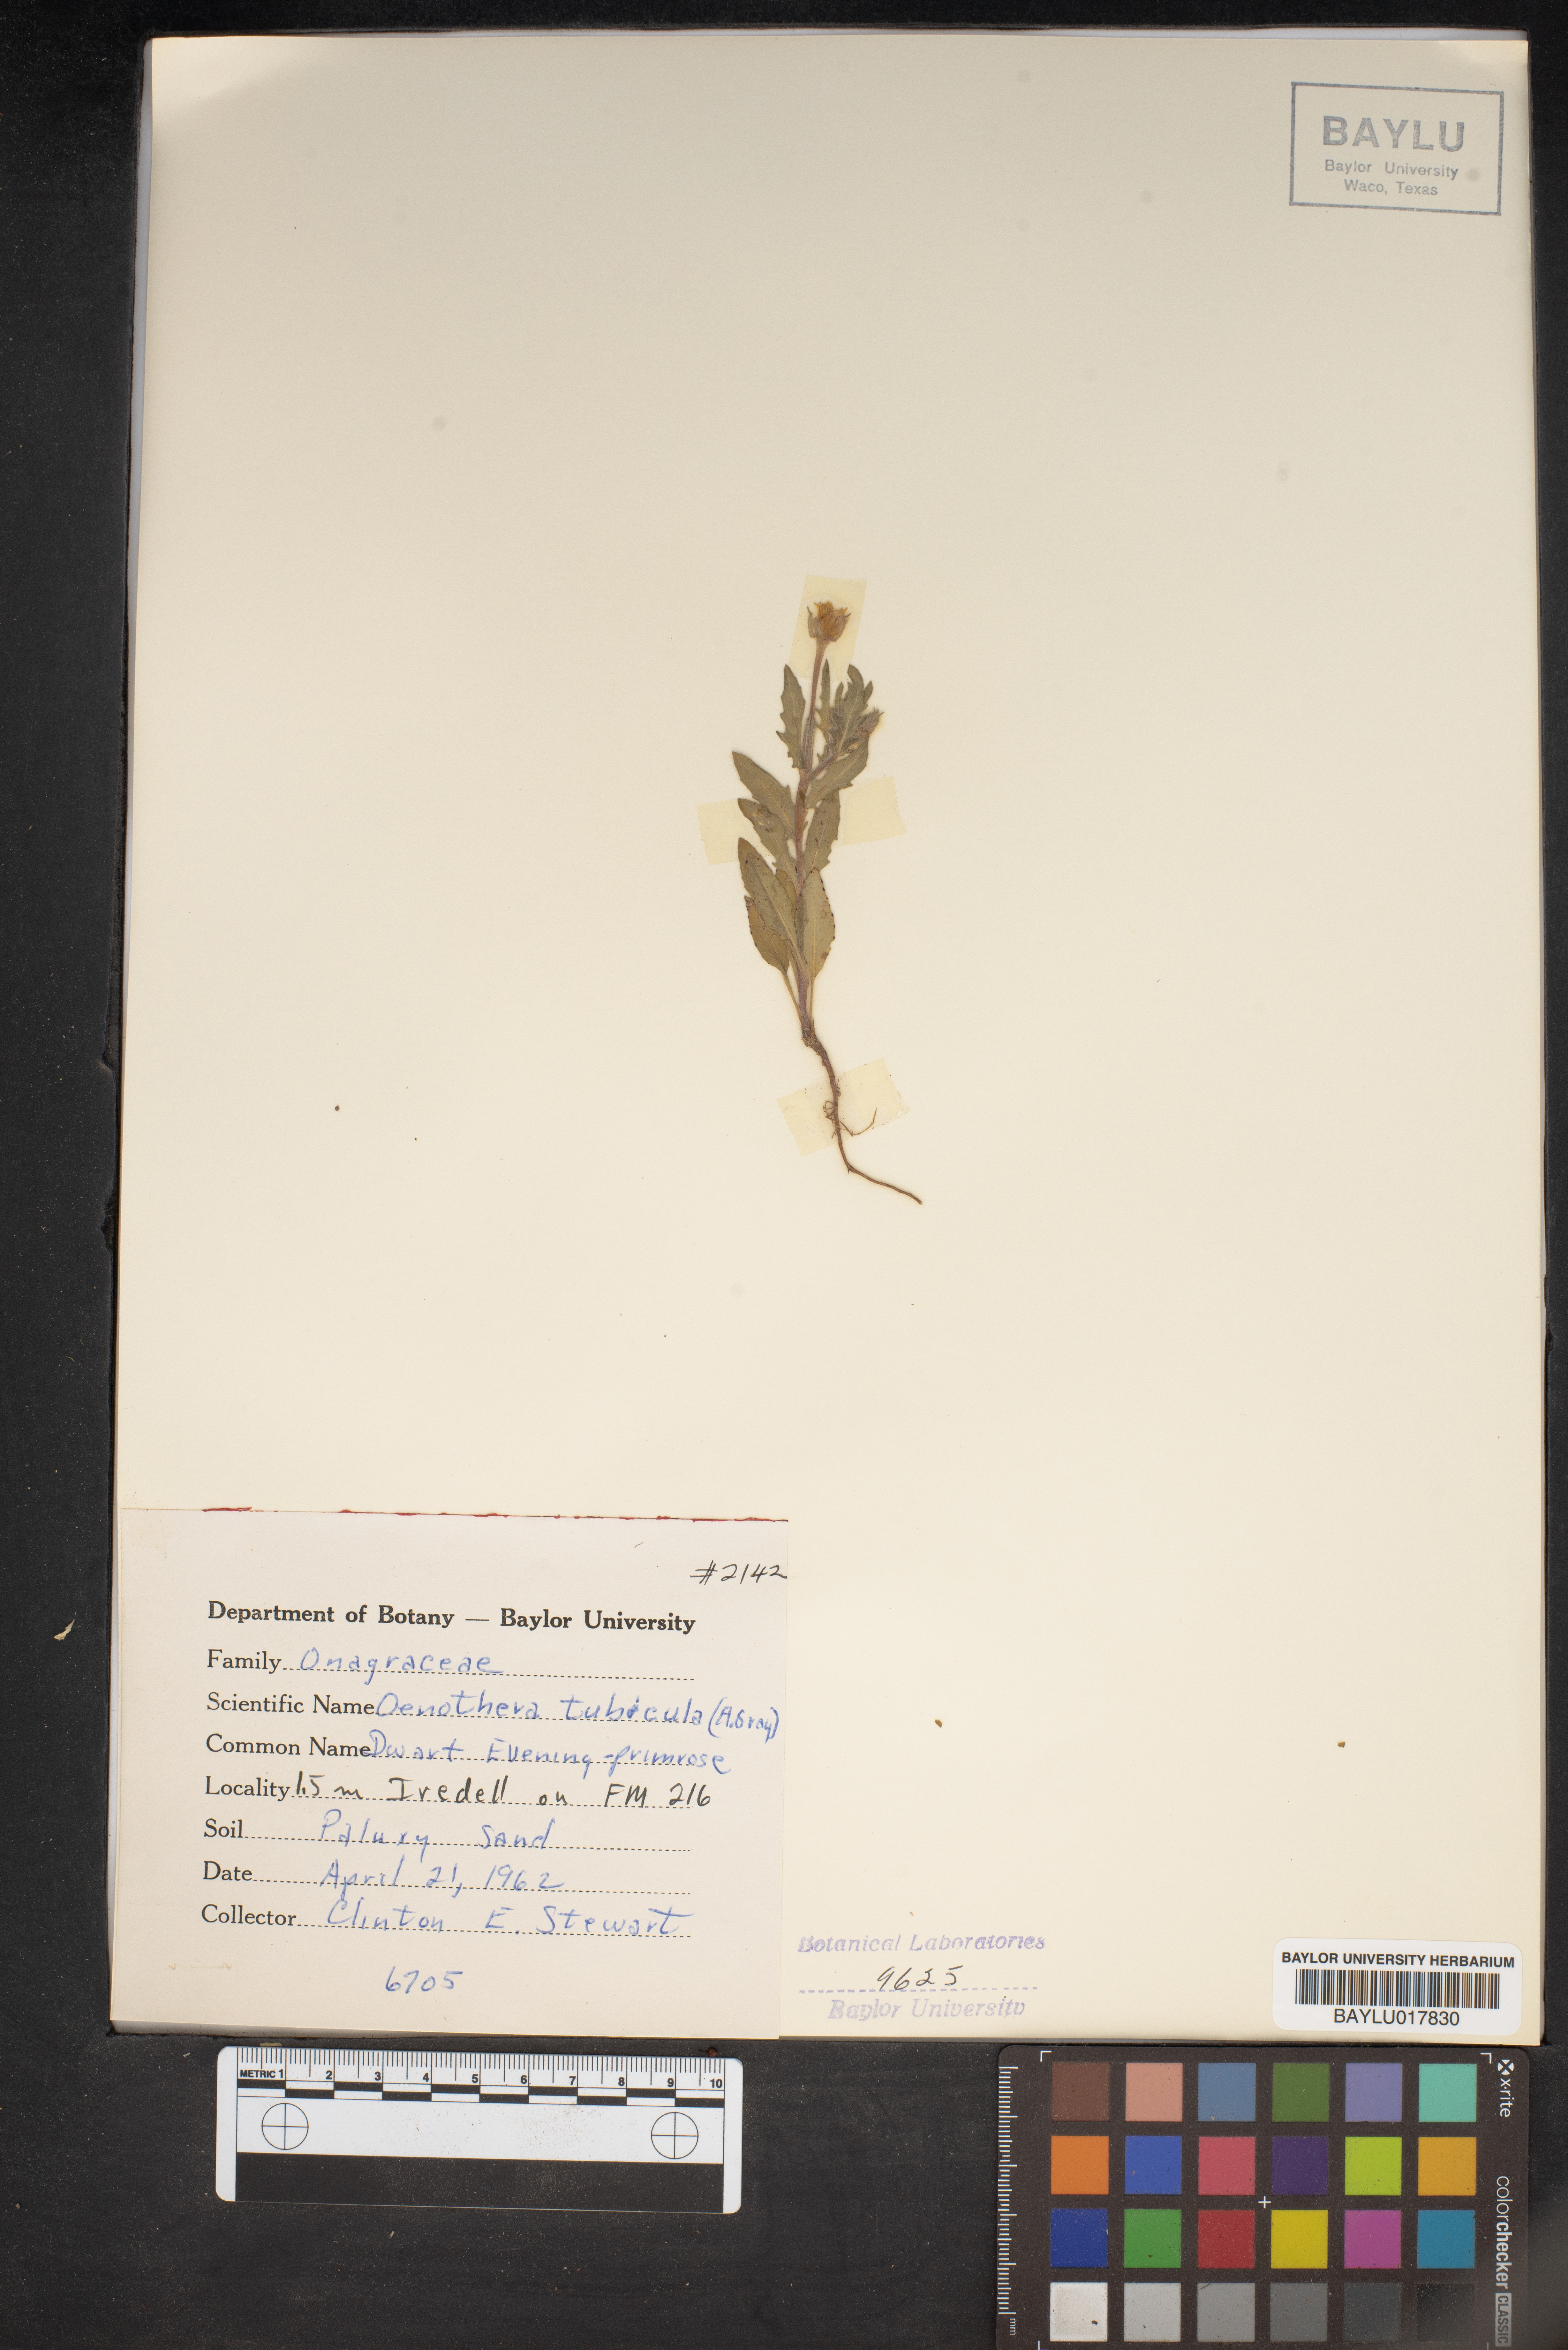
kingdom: Plantae
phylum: Tracheophyta
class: Magnoliopsida
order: Myrtales
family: Onagraceae
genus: Oenothera
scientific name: Oenothera tubicula
